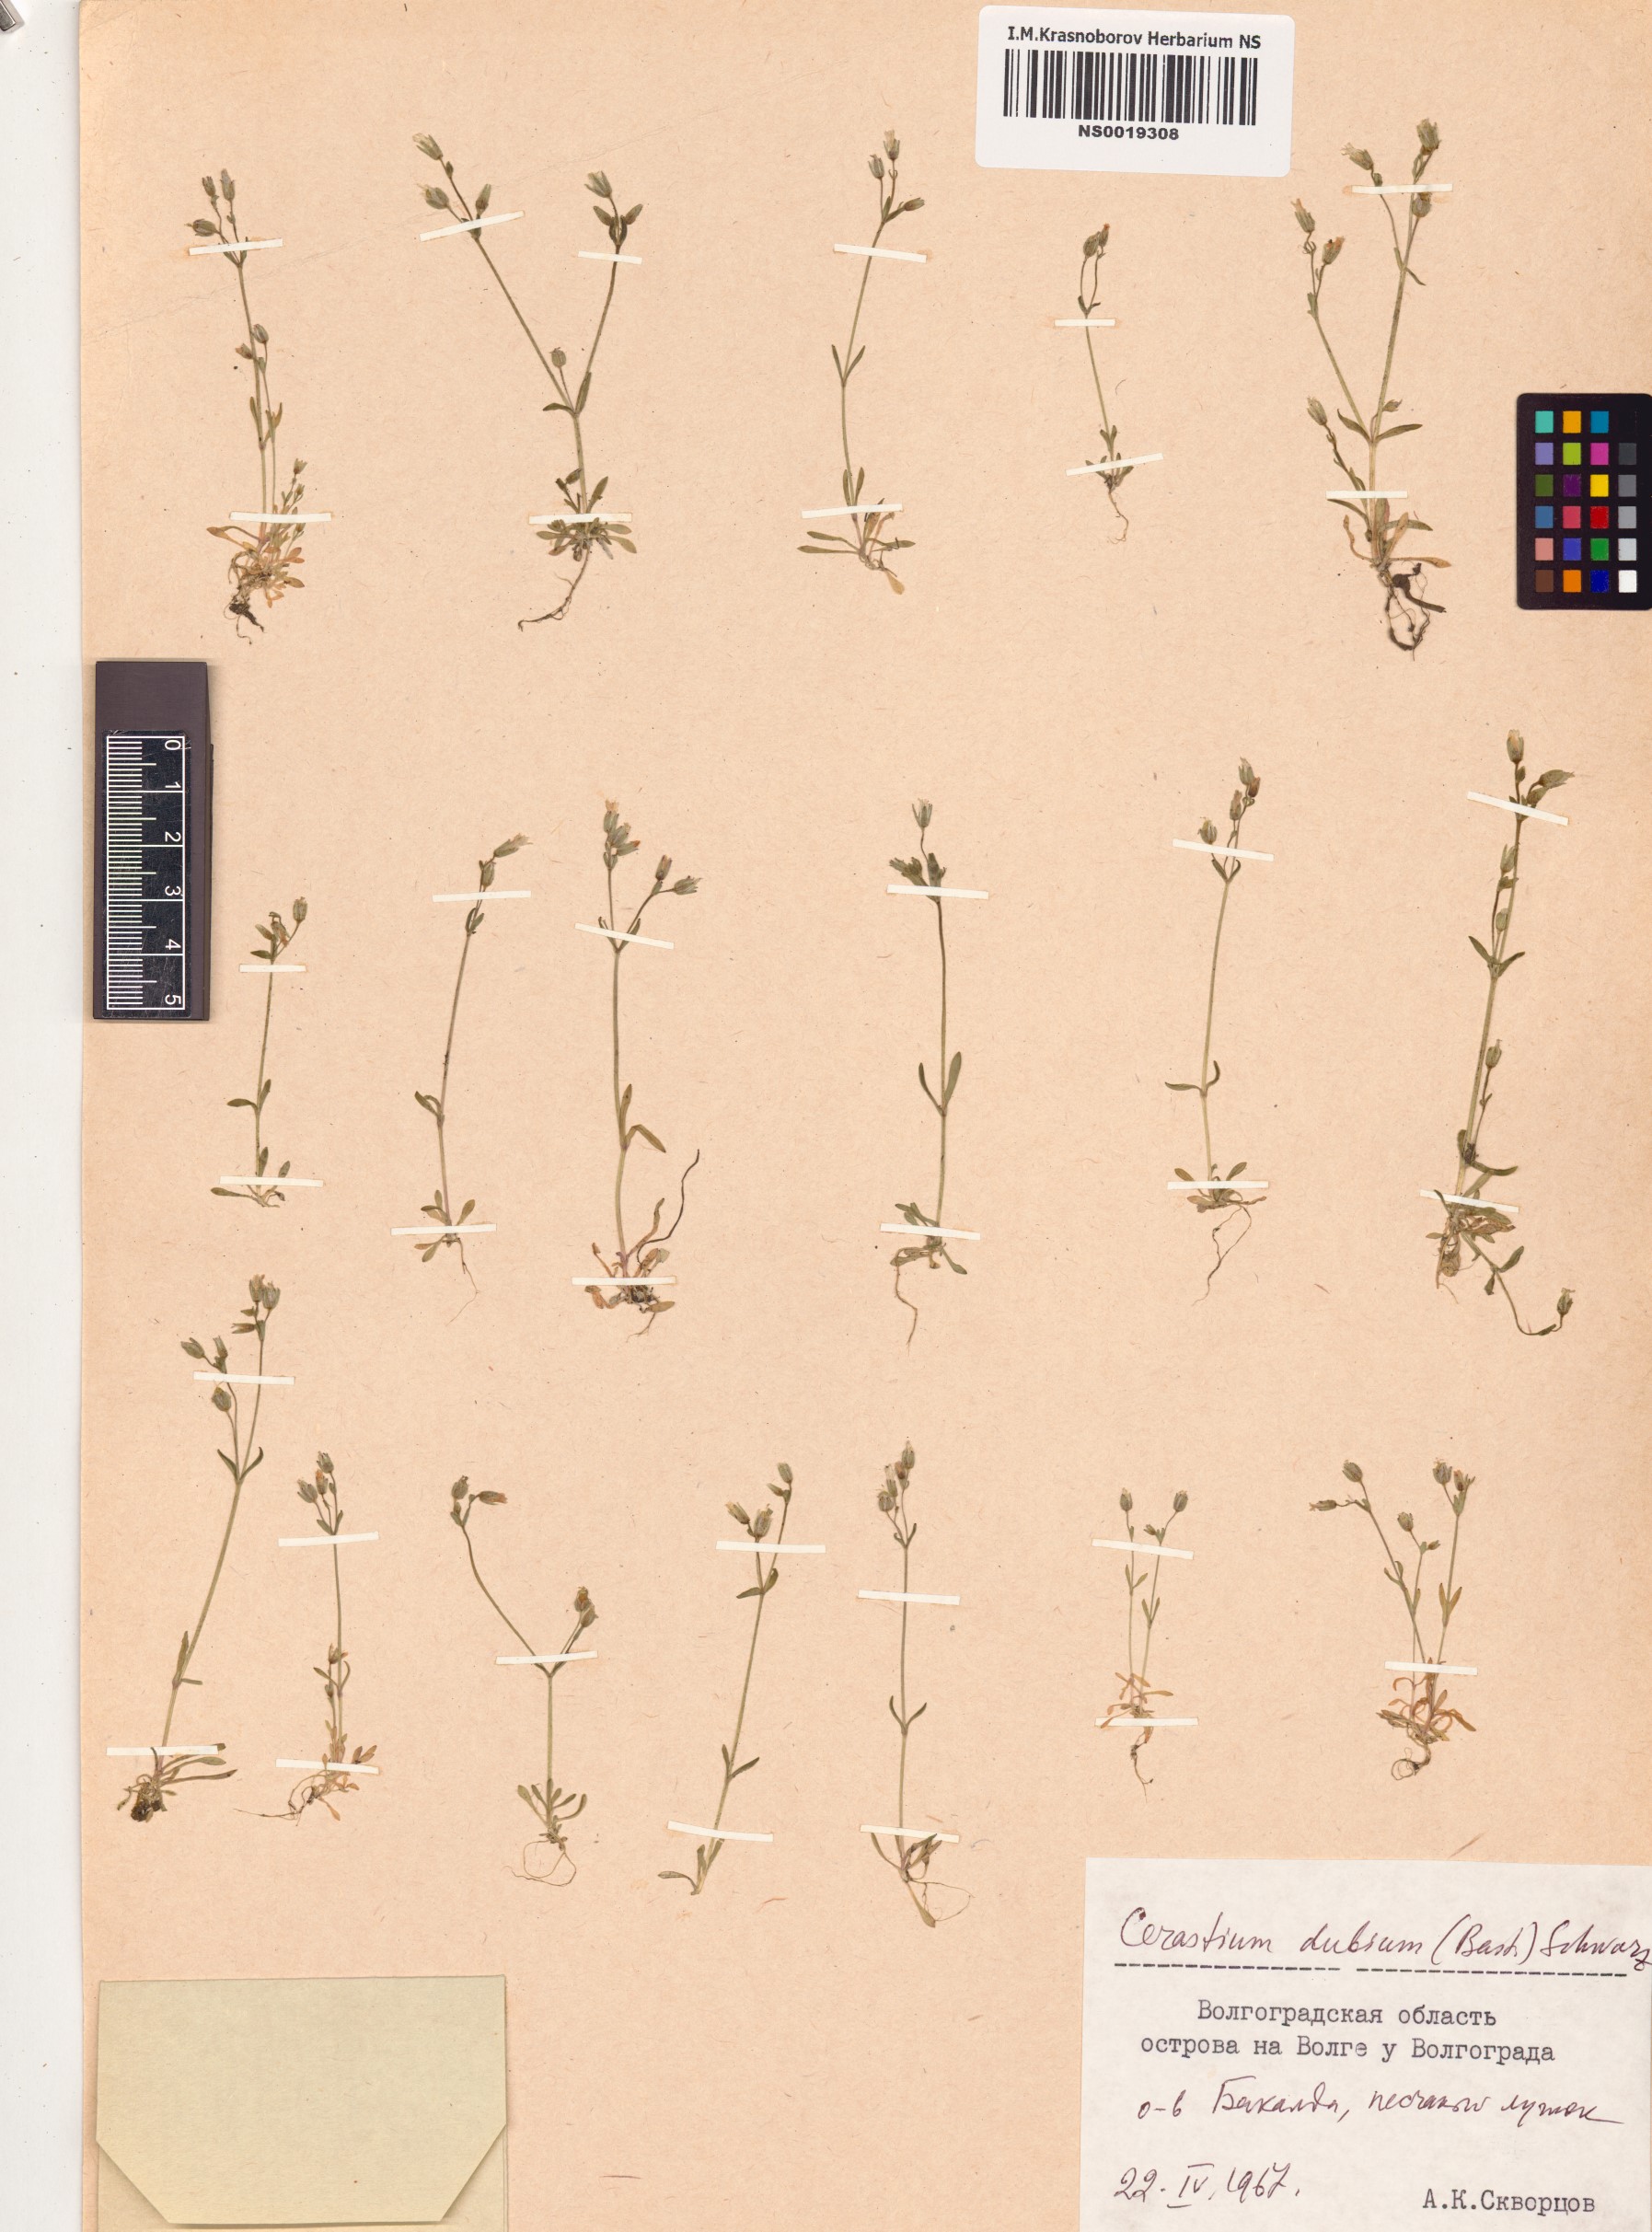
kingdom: Plantae
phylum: Tracheophyta
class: Magnoliopsida
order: Caryophyllales
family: Caryophyllaceae
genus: Dichodon
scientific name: Dichodon viscidum
